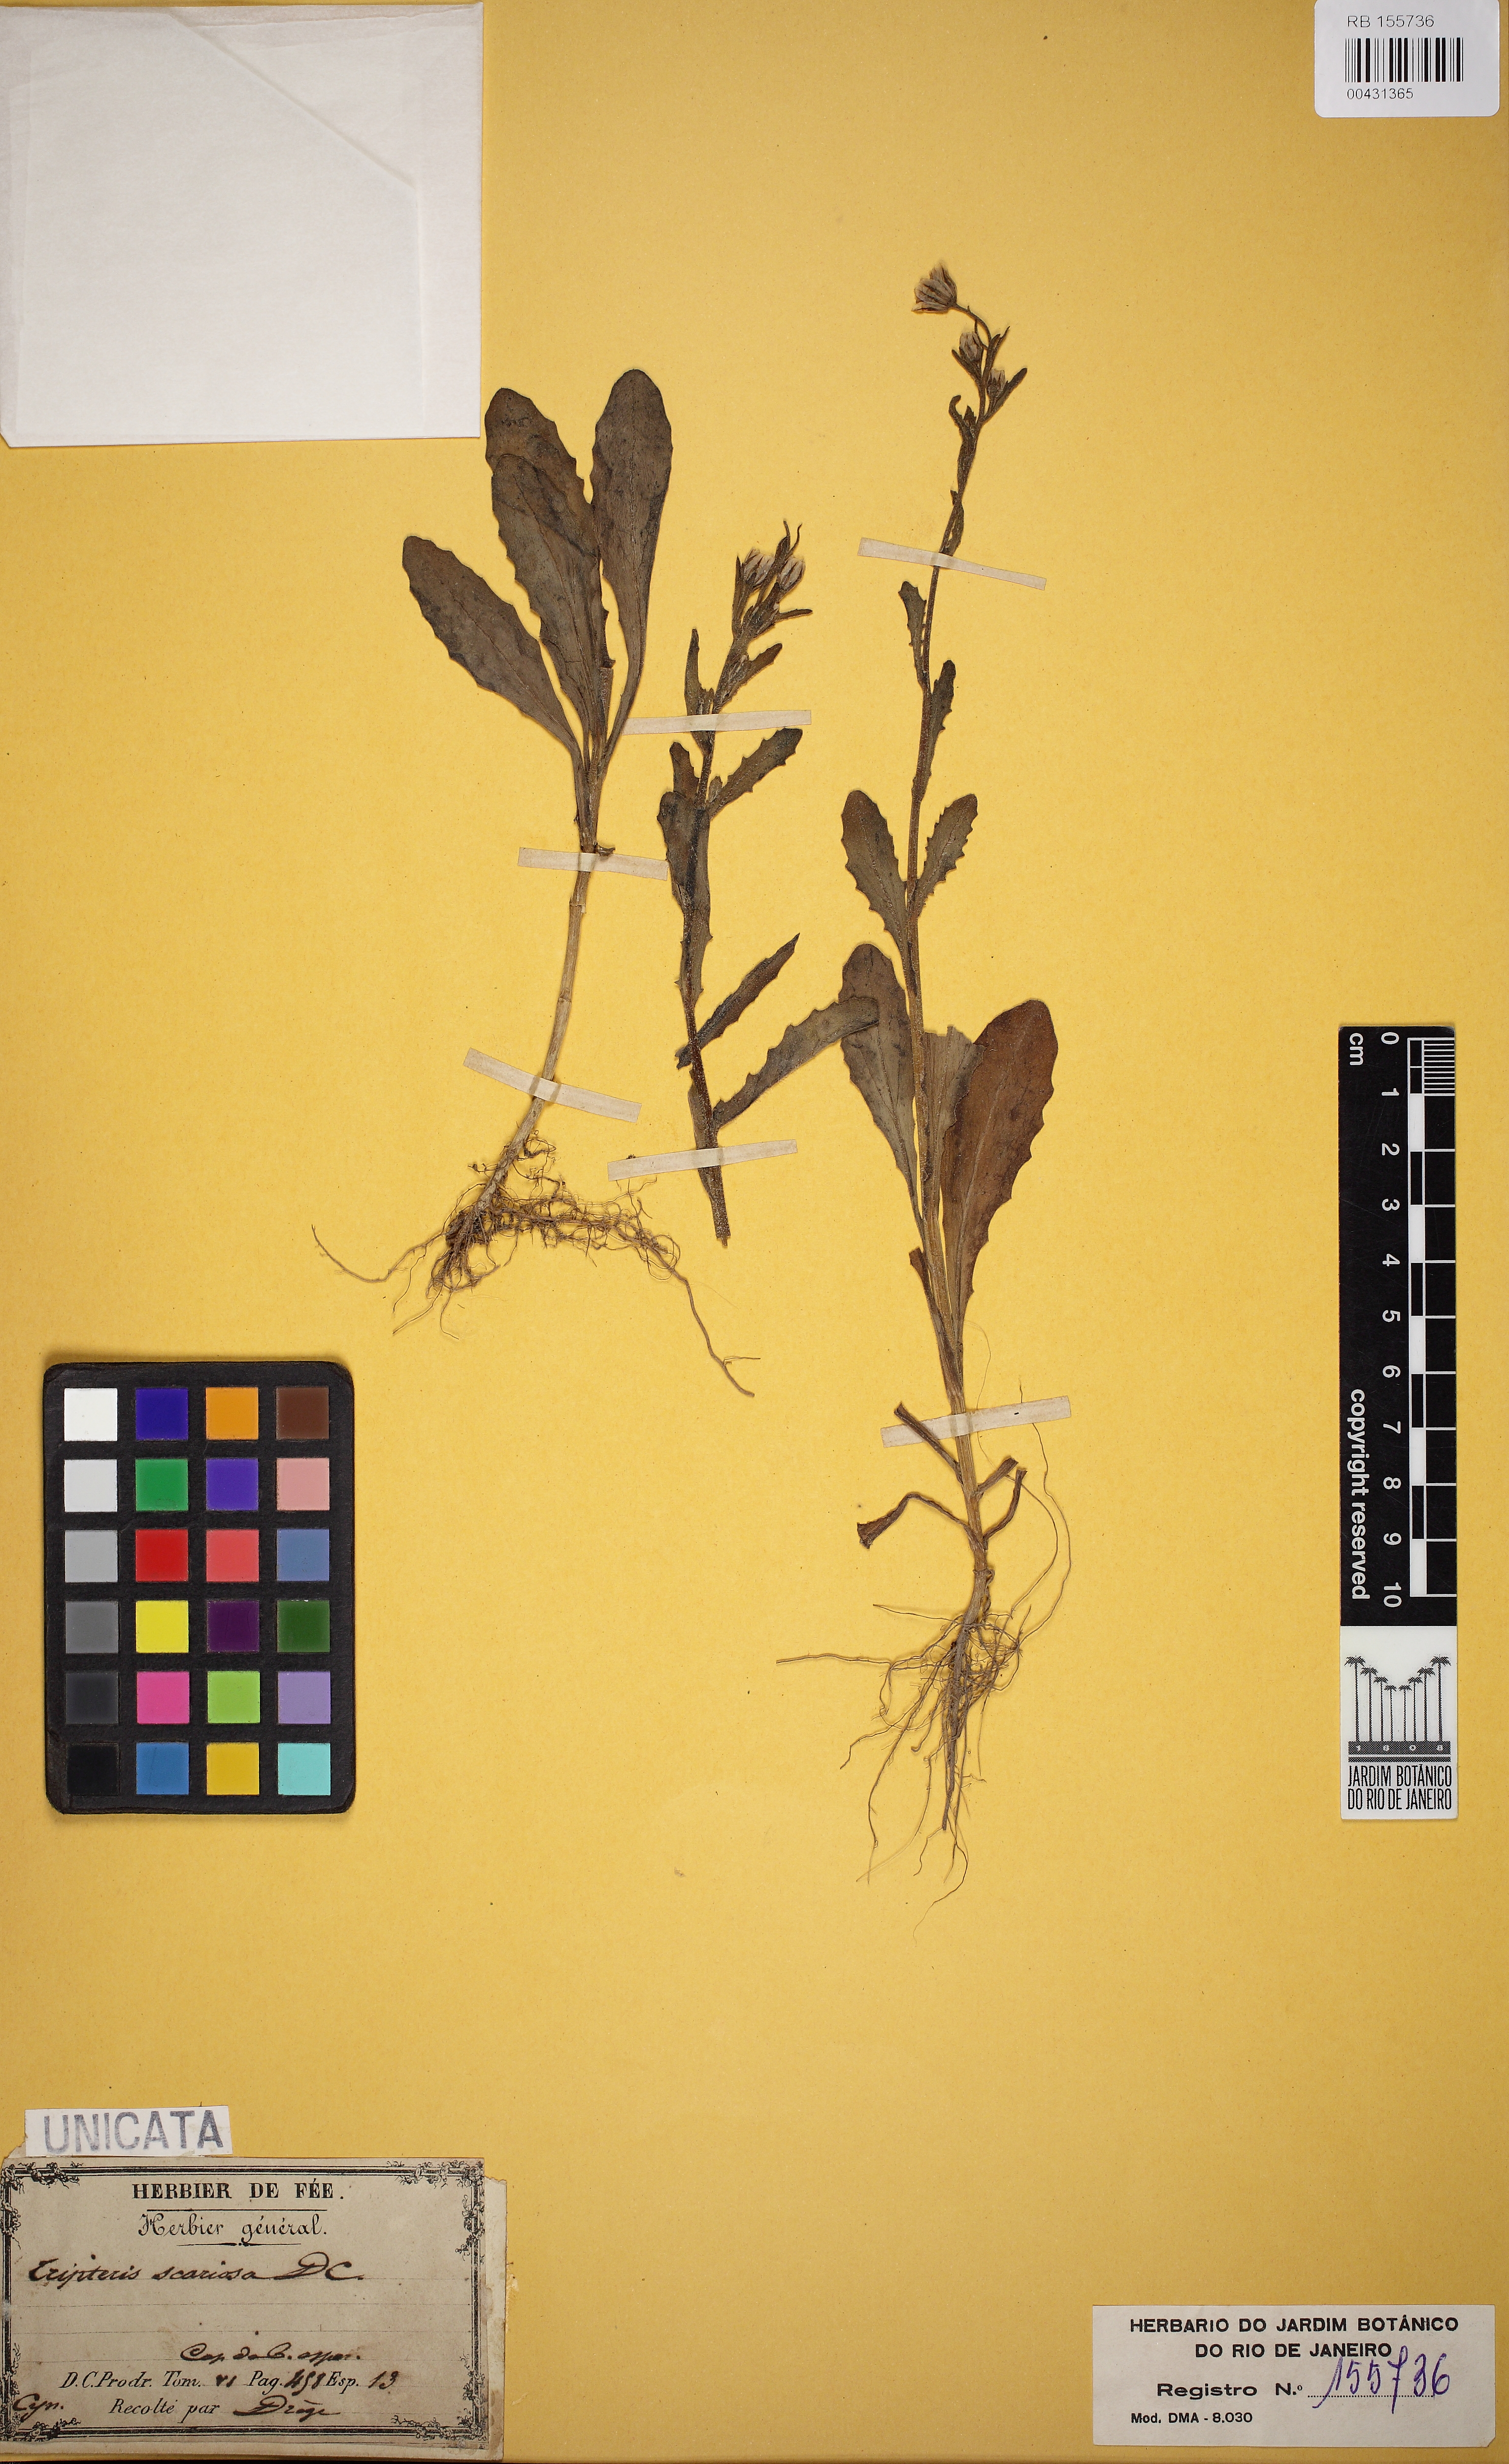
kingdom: Plantae
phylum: Tracheophyta
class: Magnoliopsida
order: Asterales
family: Asteraceae
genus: Osteospermum
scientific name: Osteospermum monstrosum
